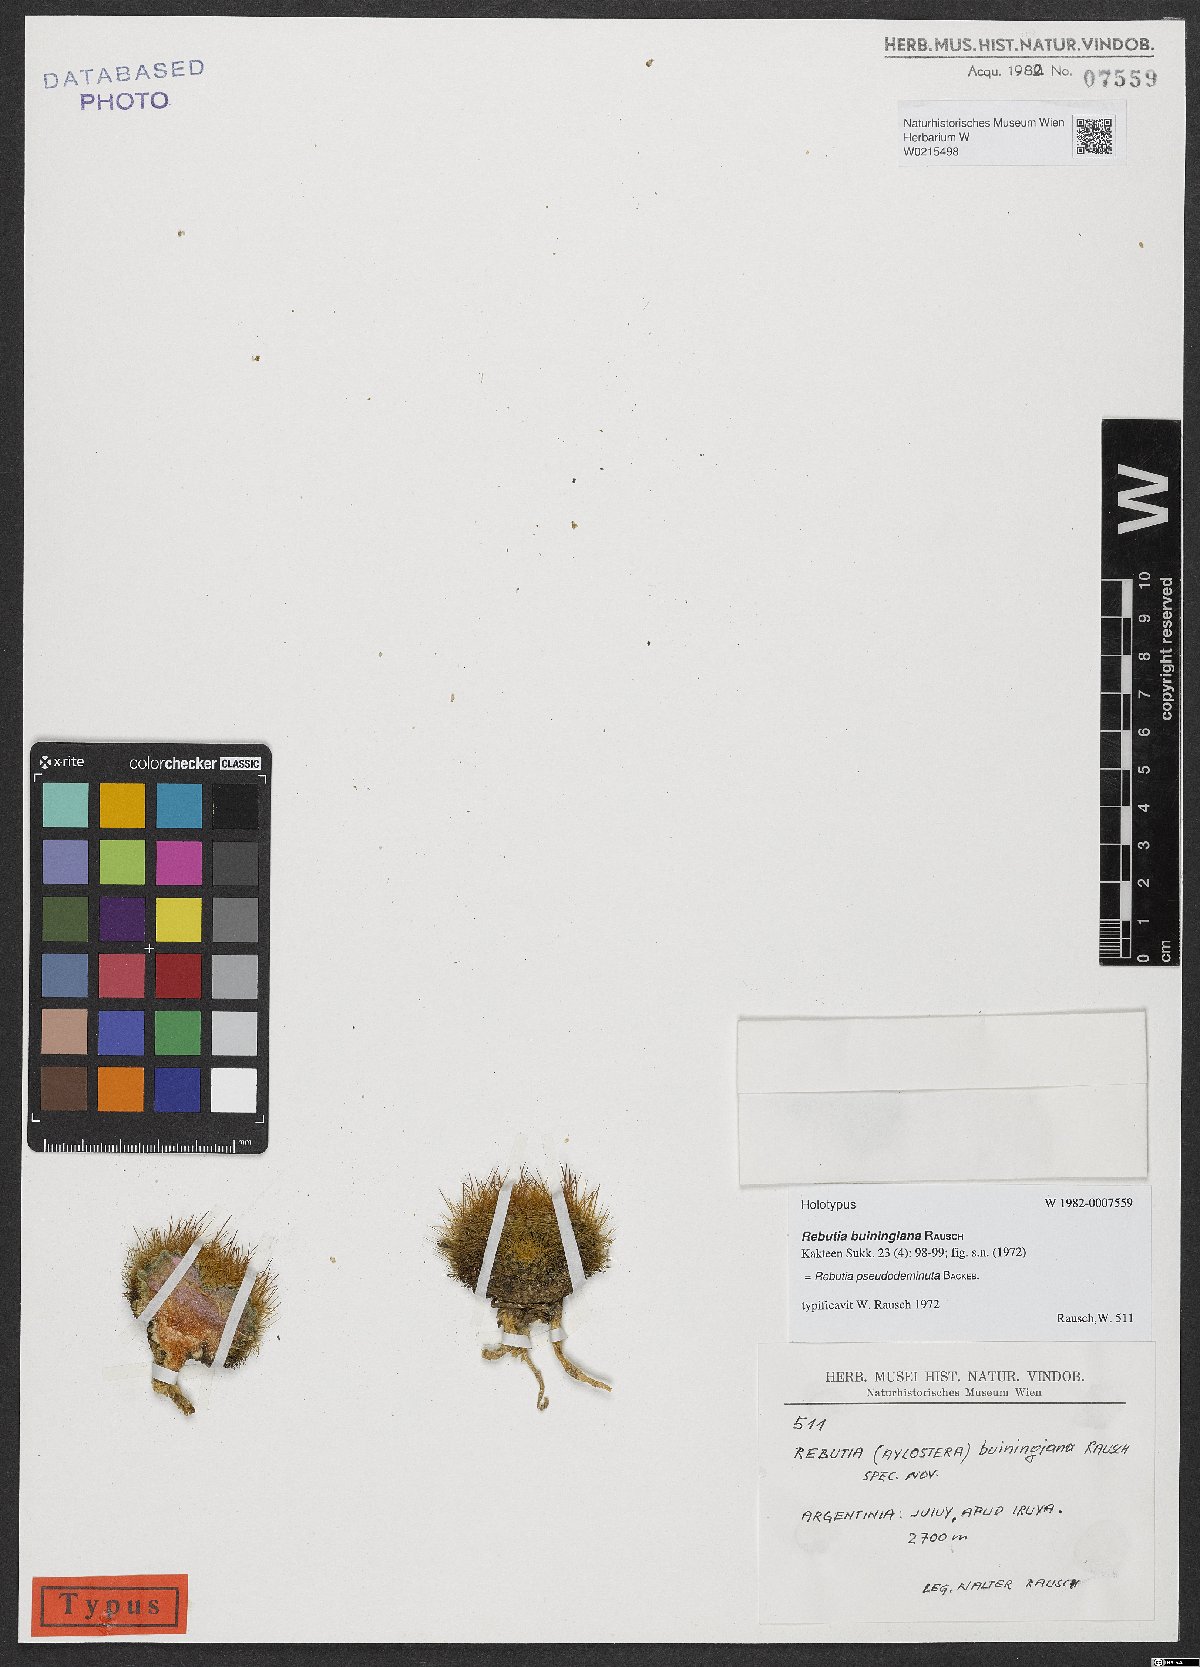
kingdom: Plantae
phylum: Tracheophyta
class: Magnoliopsida
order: Caryophyllales
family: Cactaceae
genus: Aylostera
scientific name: Aylostera deminuta
